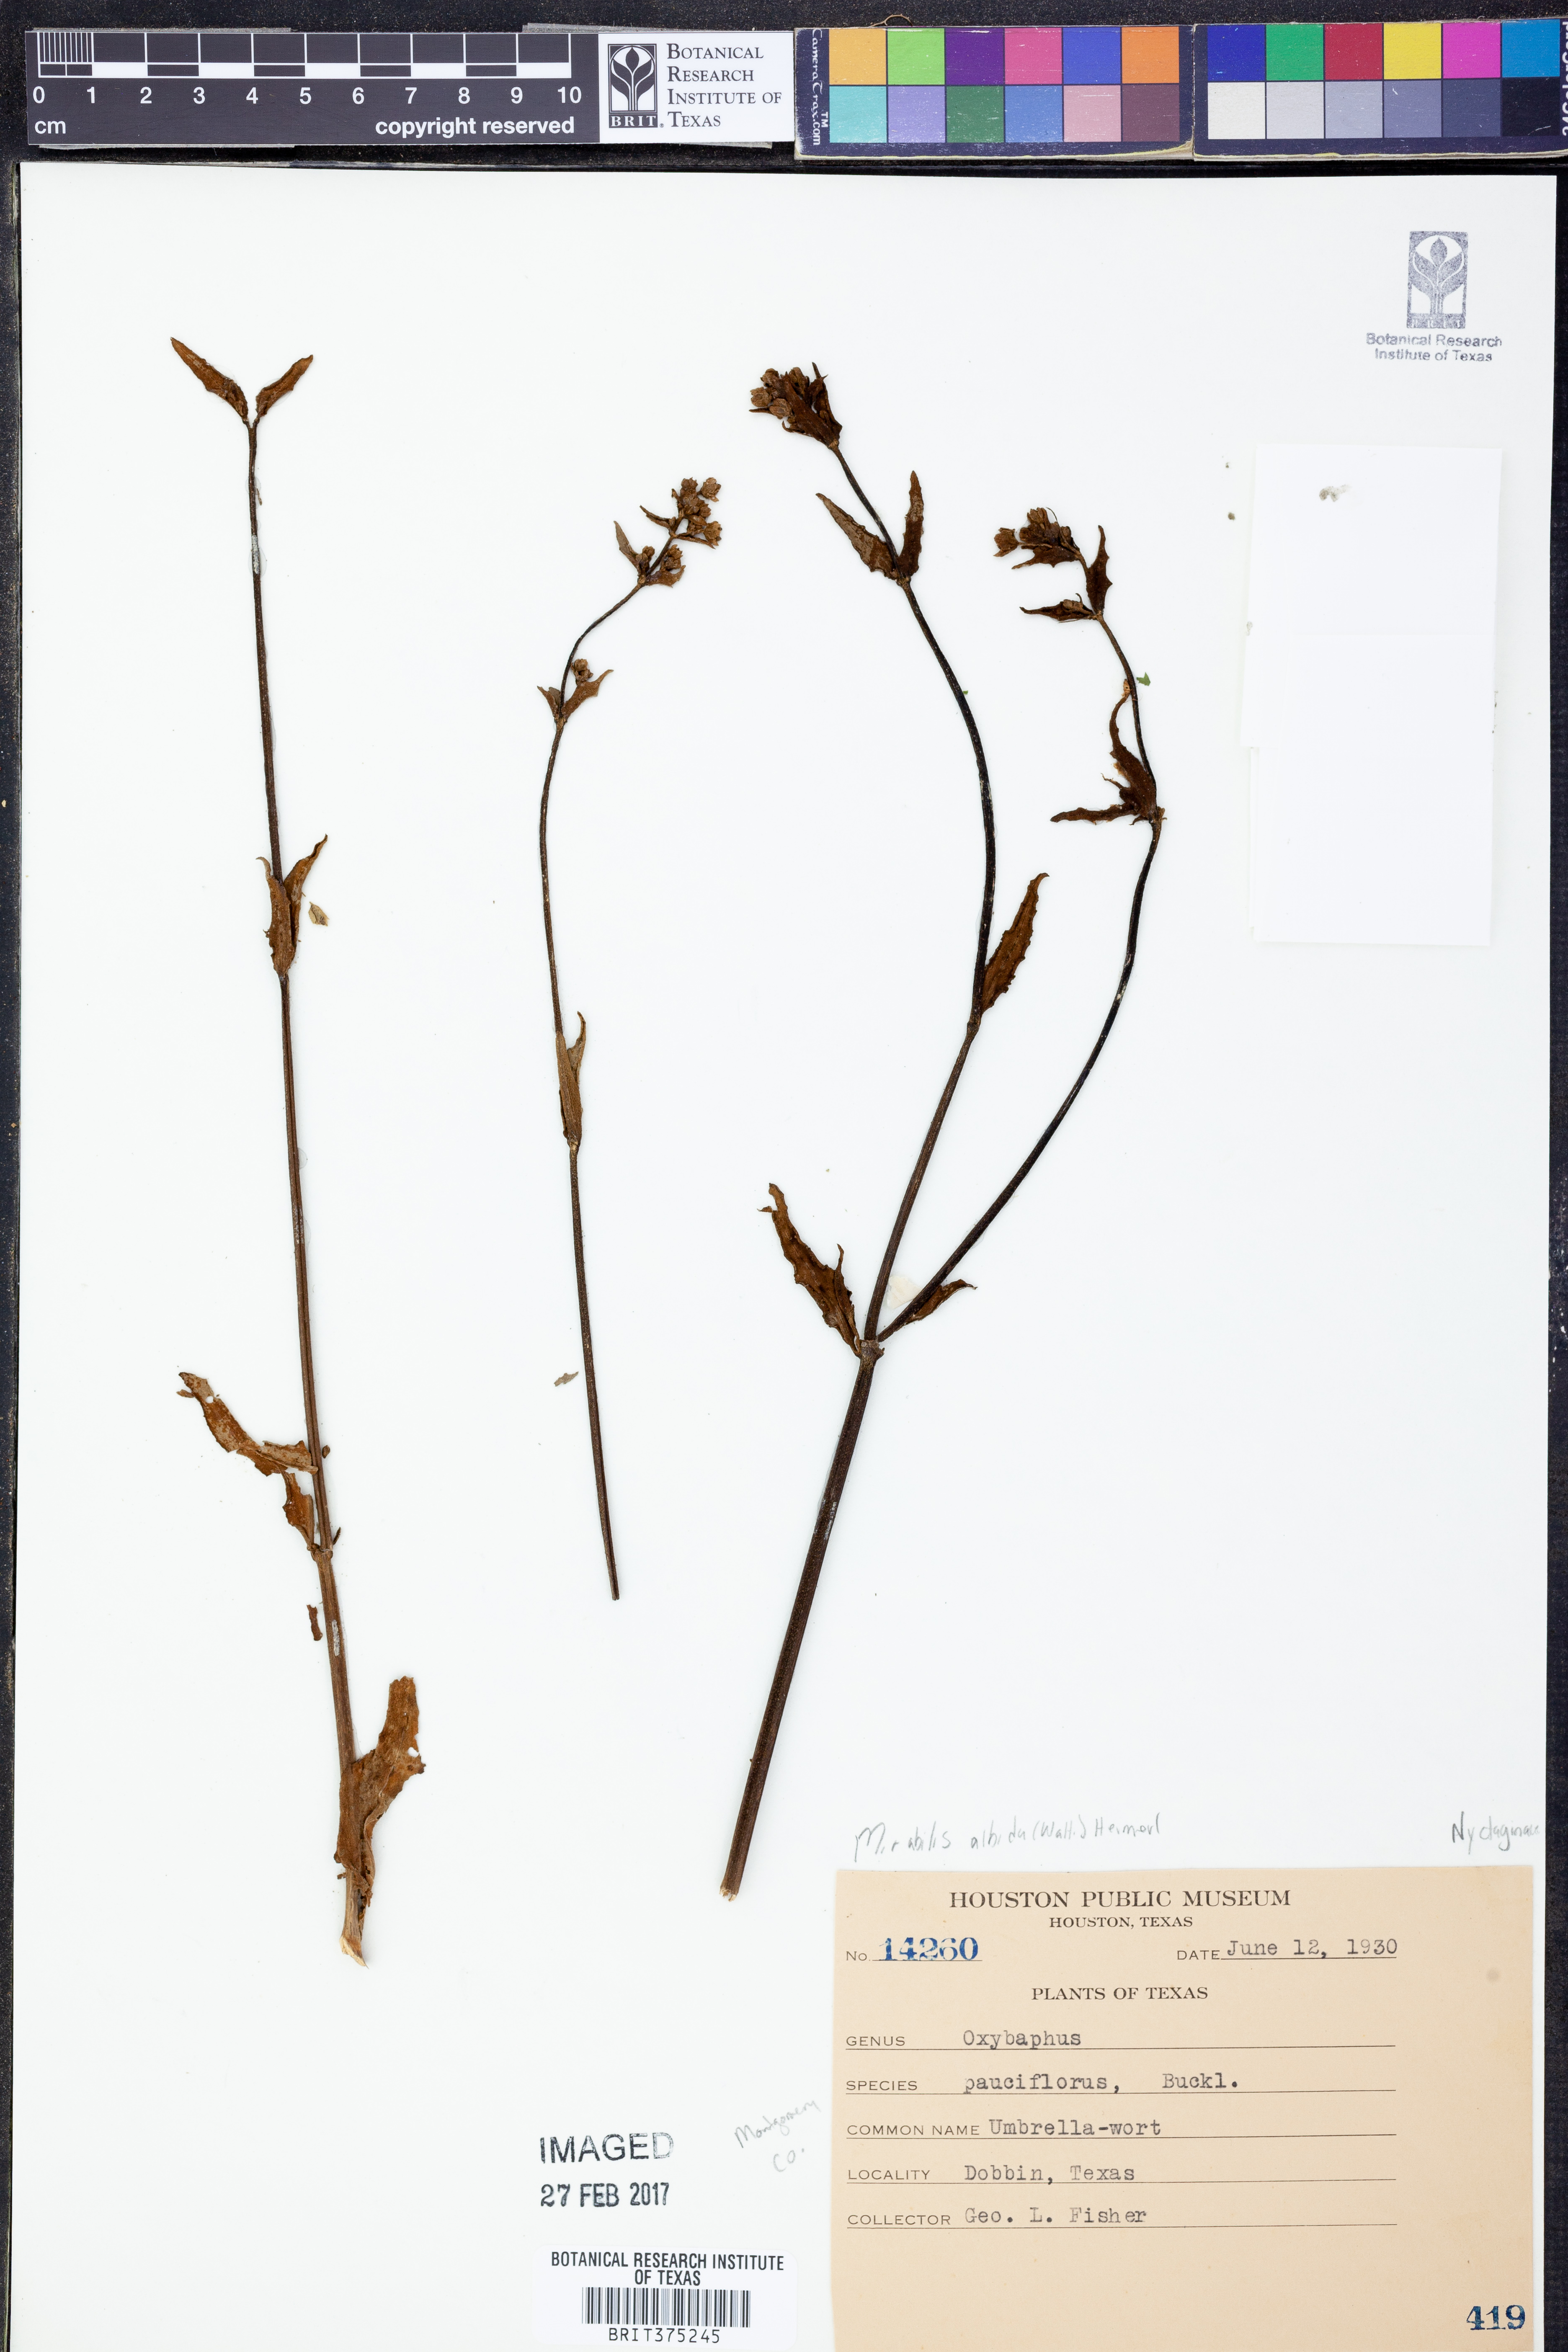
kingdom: Plantae
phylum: Tracheophyta
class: Magnoliopsida
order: Caryophyllales
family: Nyctaginaceae
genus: Mirabilis
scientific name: Mirabilis albida
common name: Hairy four-o'clock
